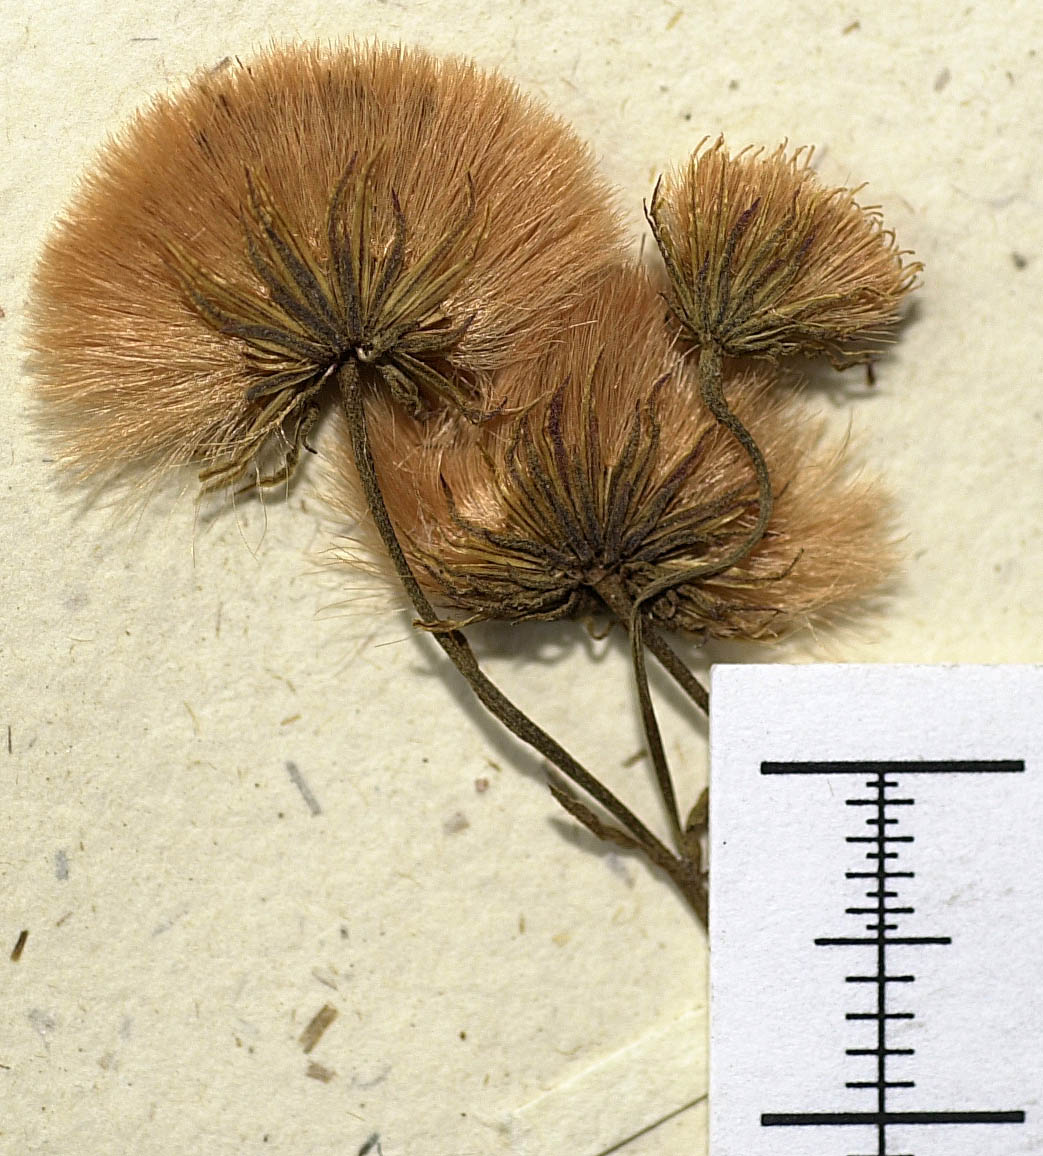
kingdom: Plantae
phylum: Tracheophyta
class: Magnoliopsida
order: Asterales
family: Asteraceae
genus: Erigeron
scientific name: Erigeron acris
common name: Blue fleabane
